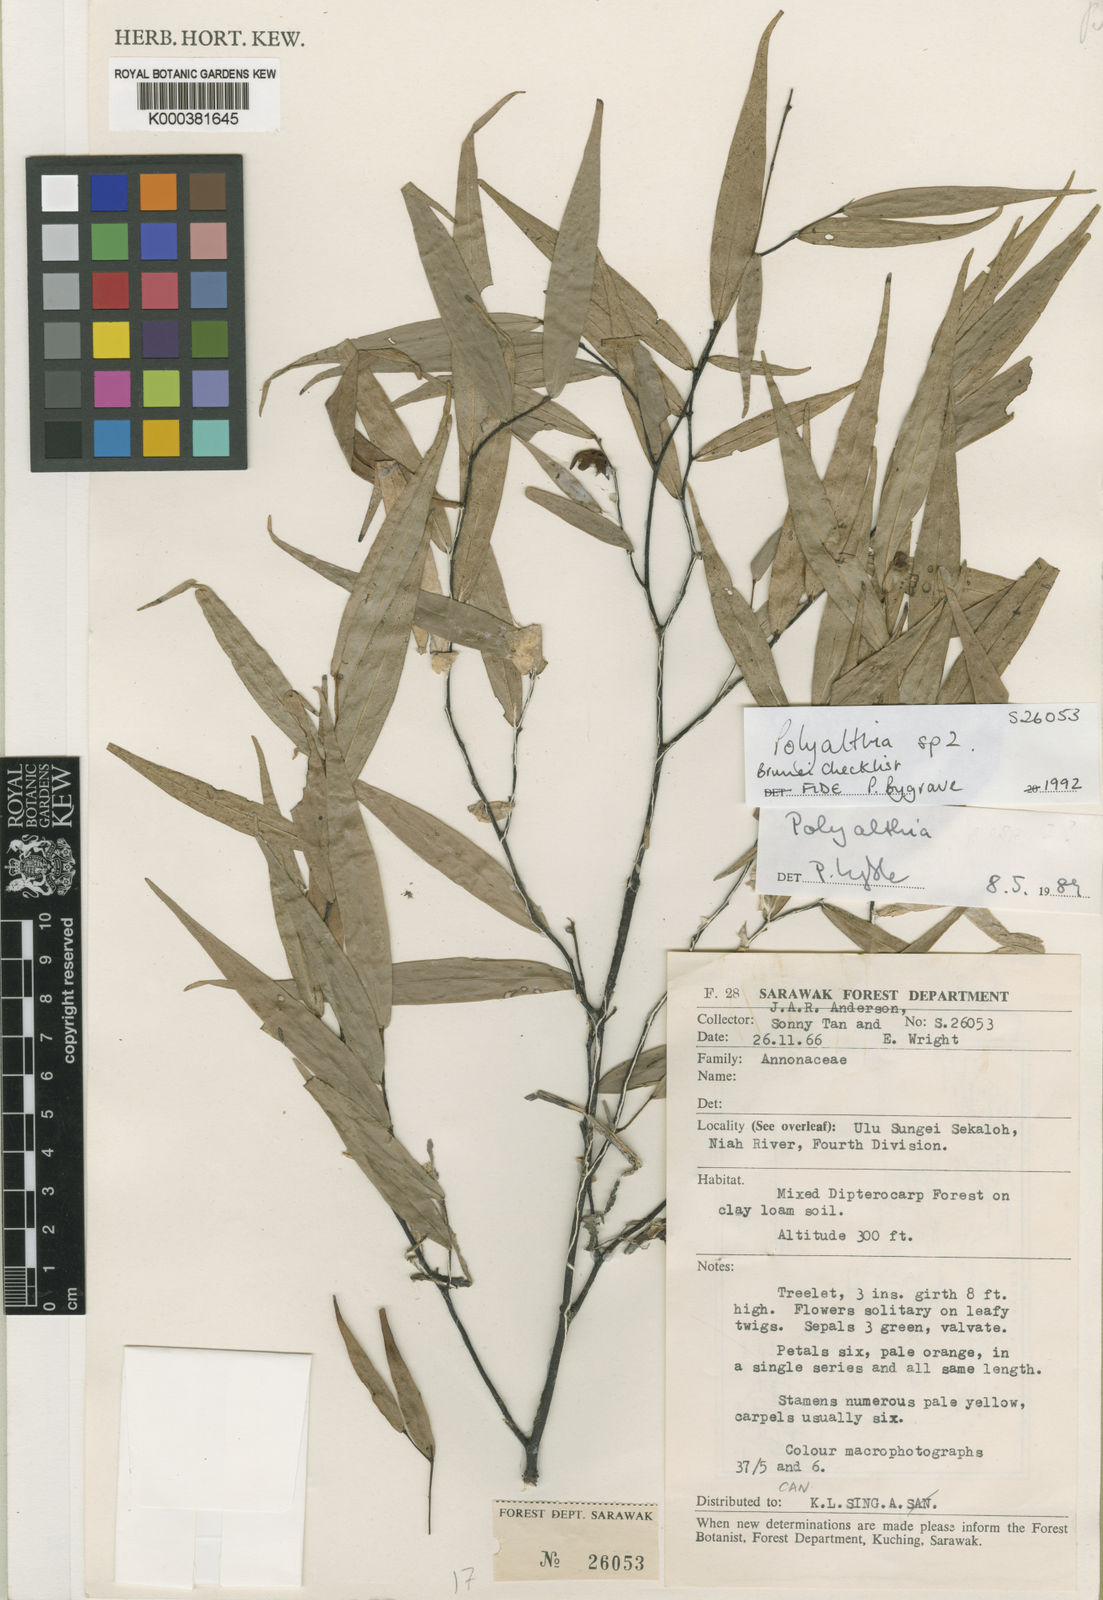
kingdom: Plantae
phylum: Tracheophyta
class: Magnoliopsida
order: Magnoliales
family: Annonaceae
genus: Polyalthia
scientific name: Polyalthia sympetala
